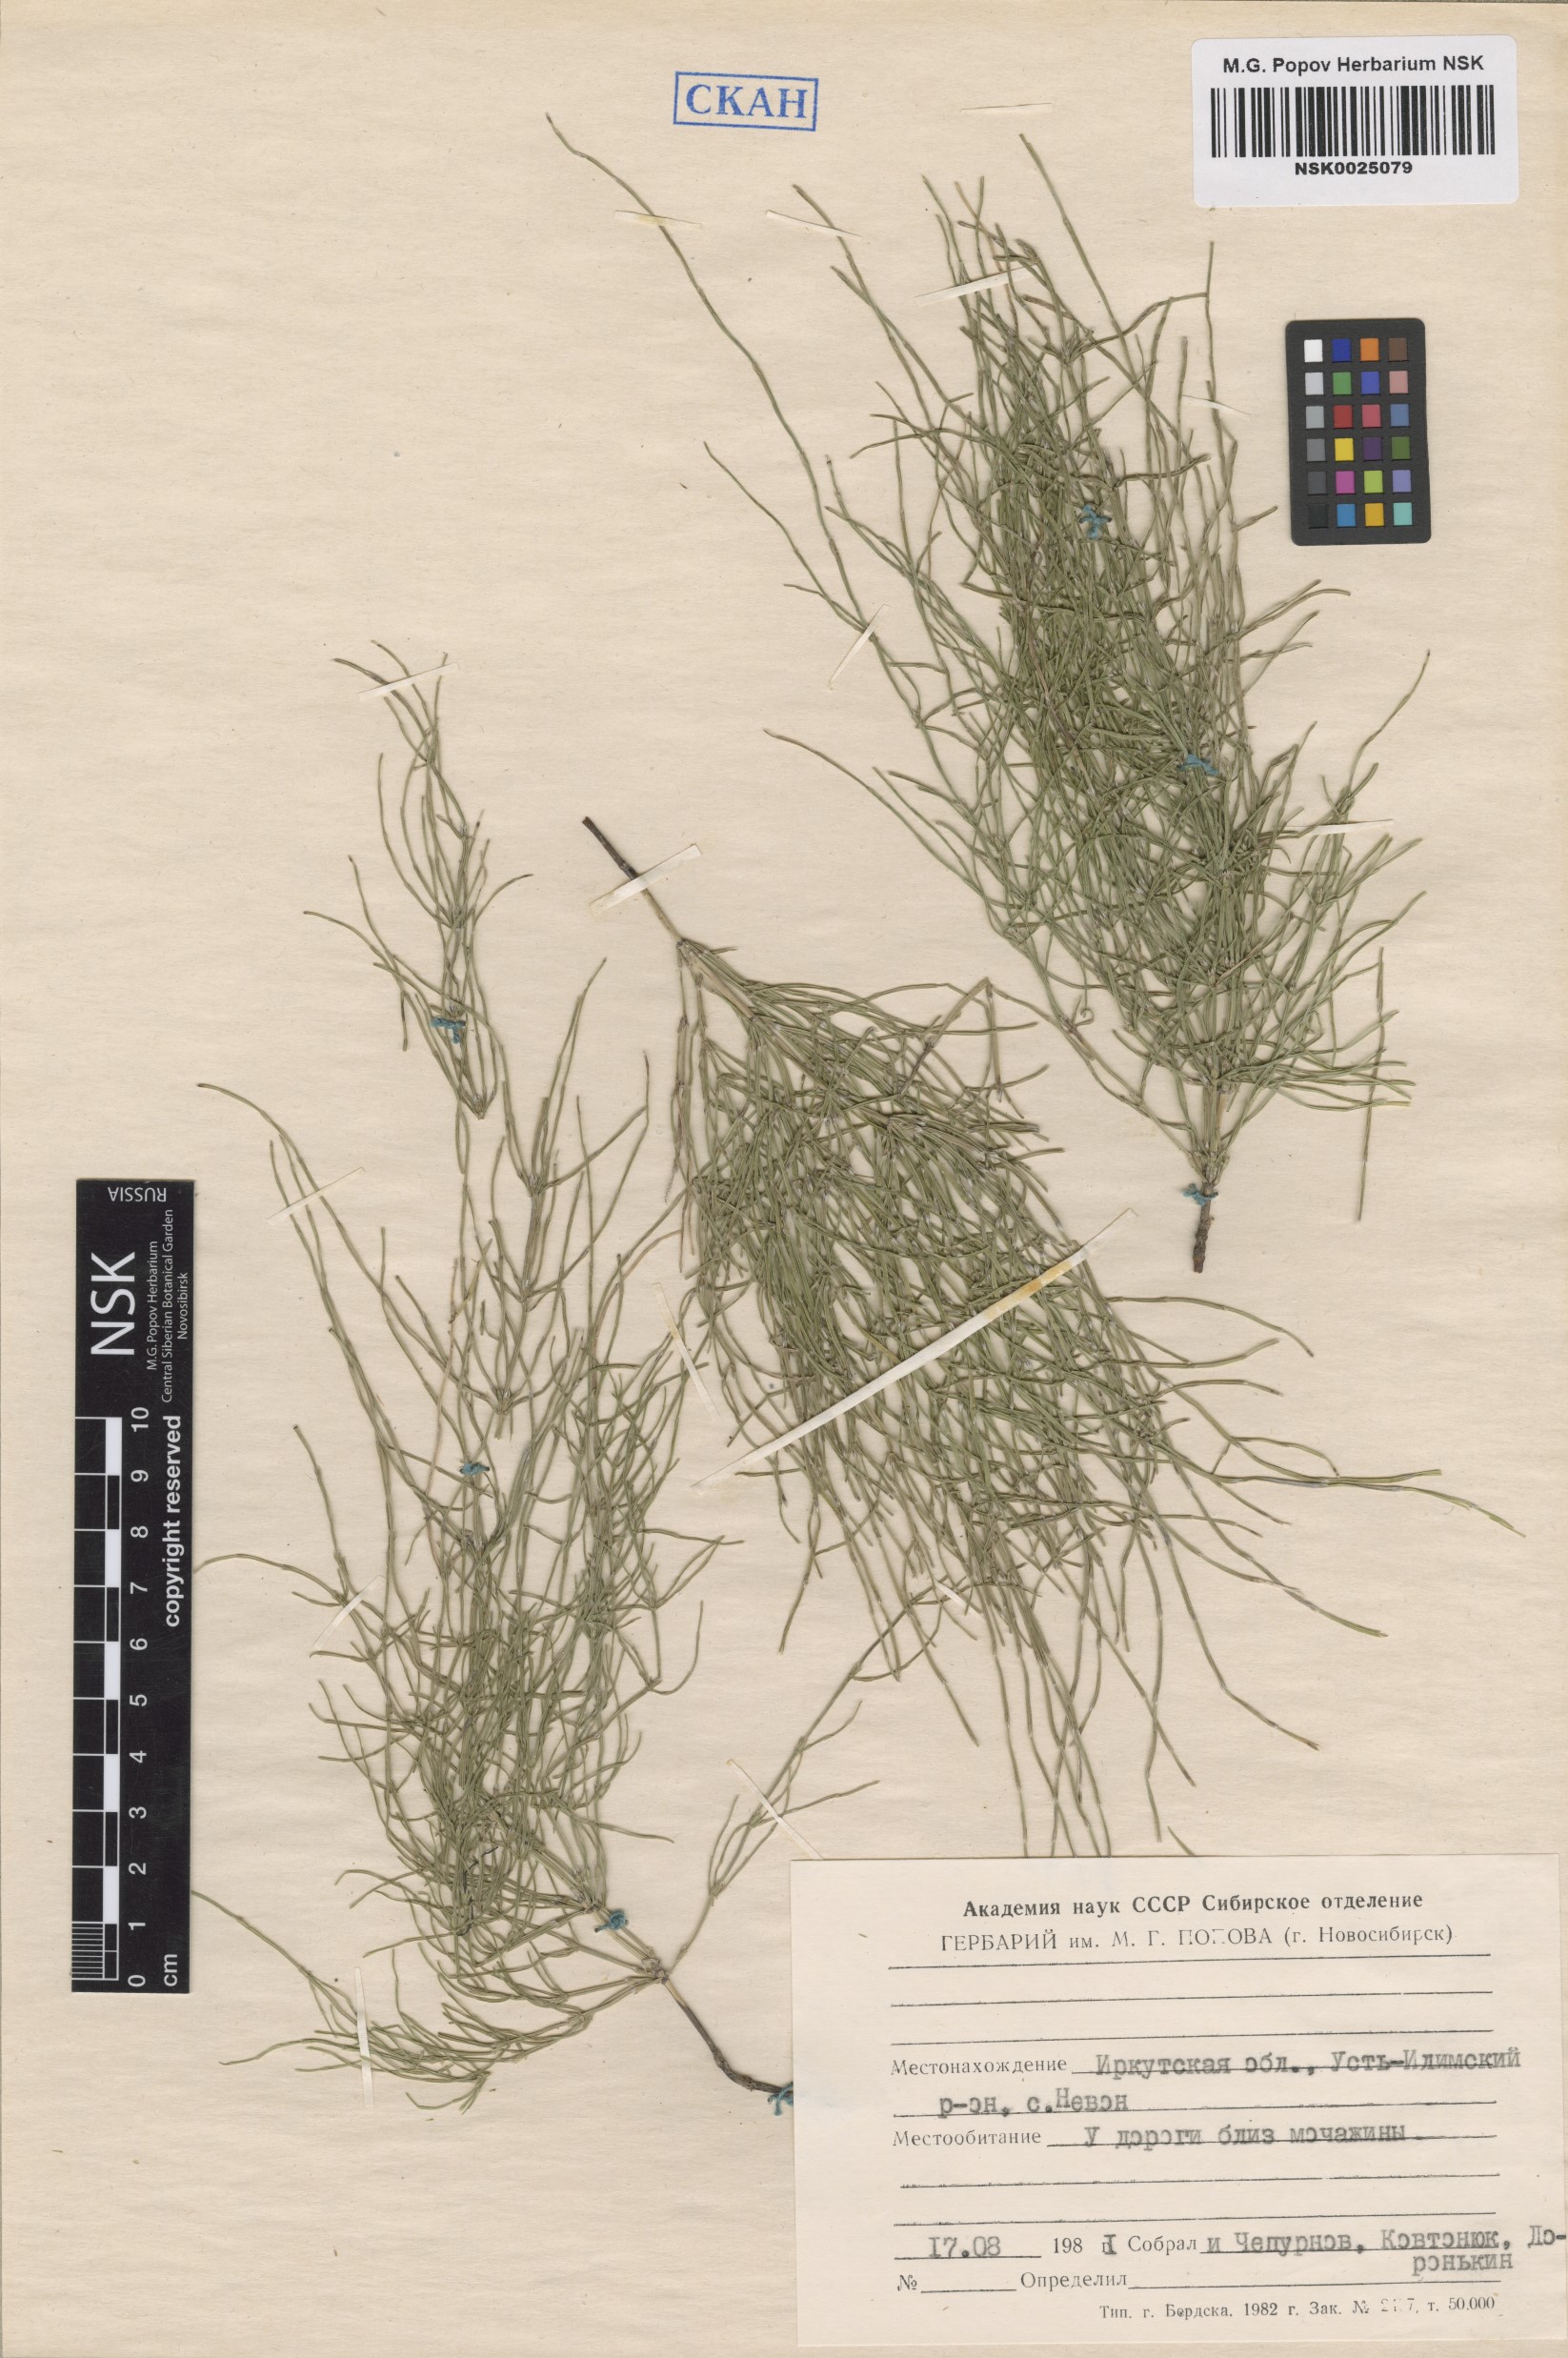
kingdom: Plantae
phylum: Tracheophyta
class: Polypodiopsida
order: Equisetales
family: Equisetaceae
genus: Equisetum
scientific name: Equisetum
